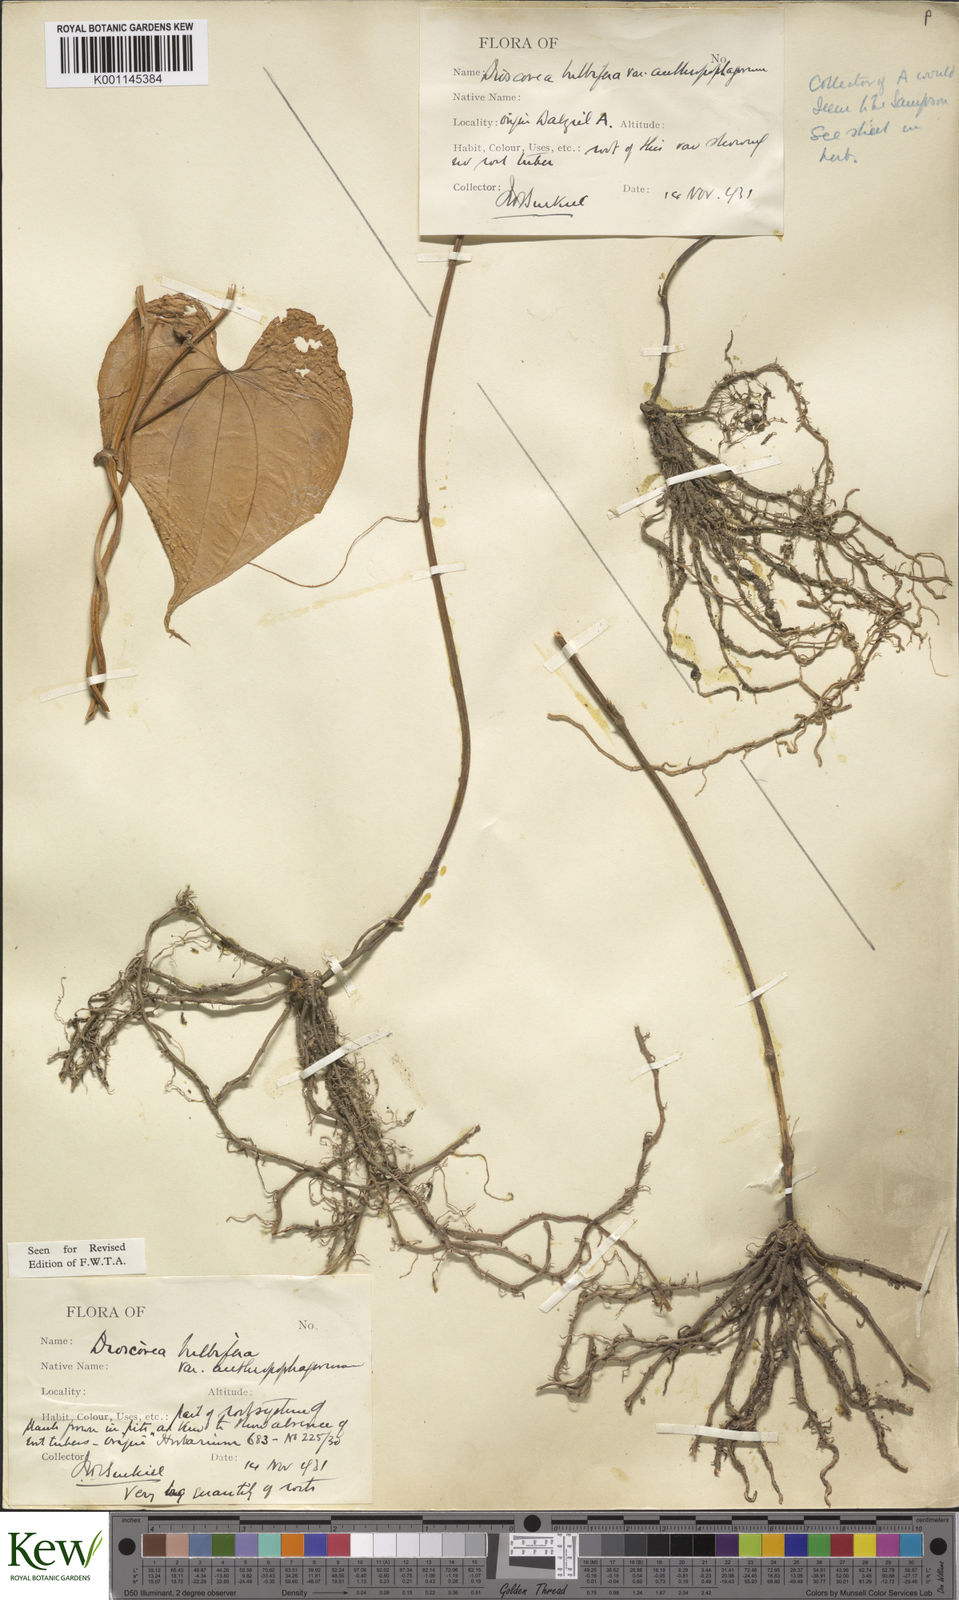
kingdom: Plantae
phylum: Tracheophyta
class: Liliopsida
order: Dioscoreales
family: Dioscoreaceae
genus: Dioscorea
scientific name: Dioscorea bulbifera
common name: Air yam
